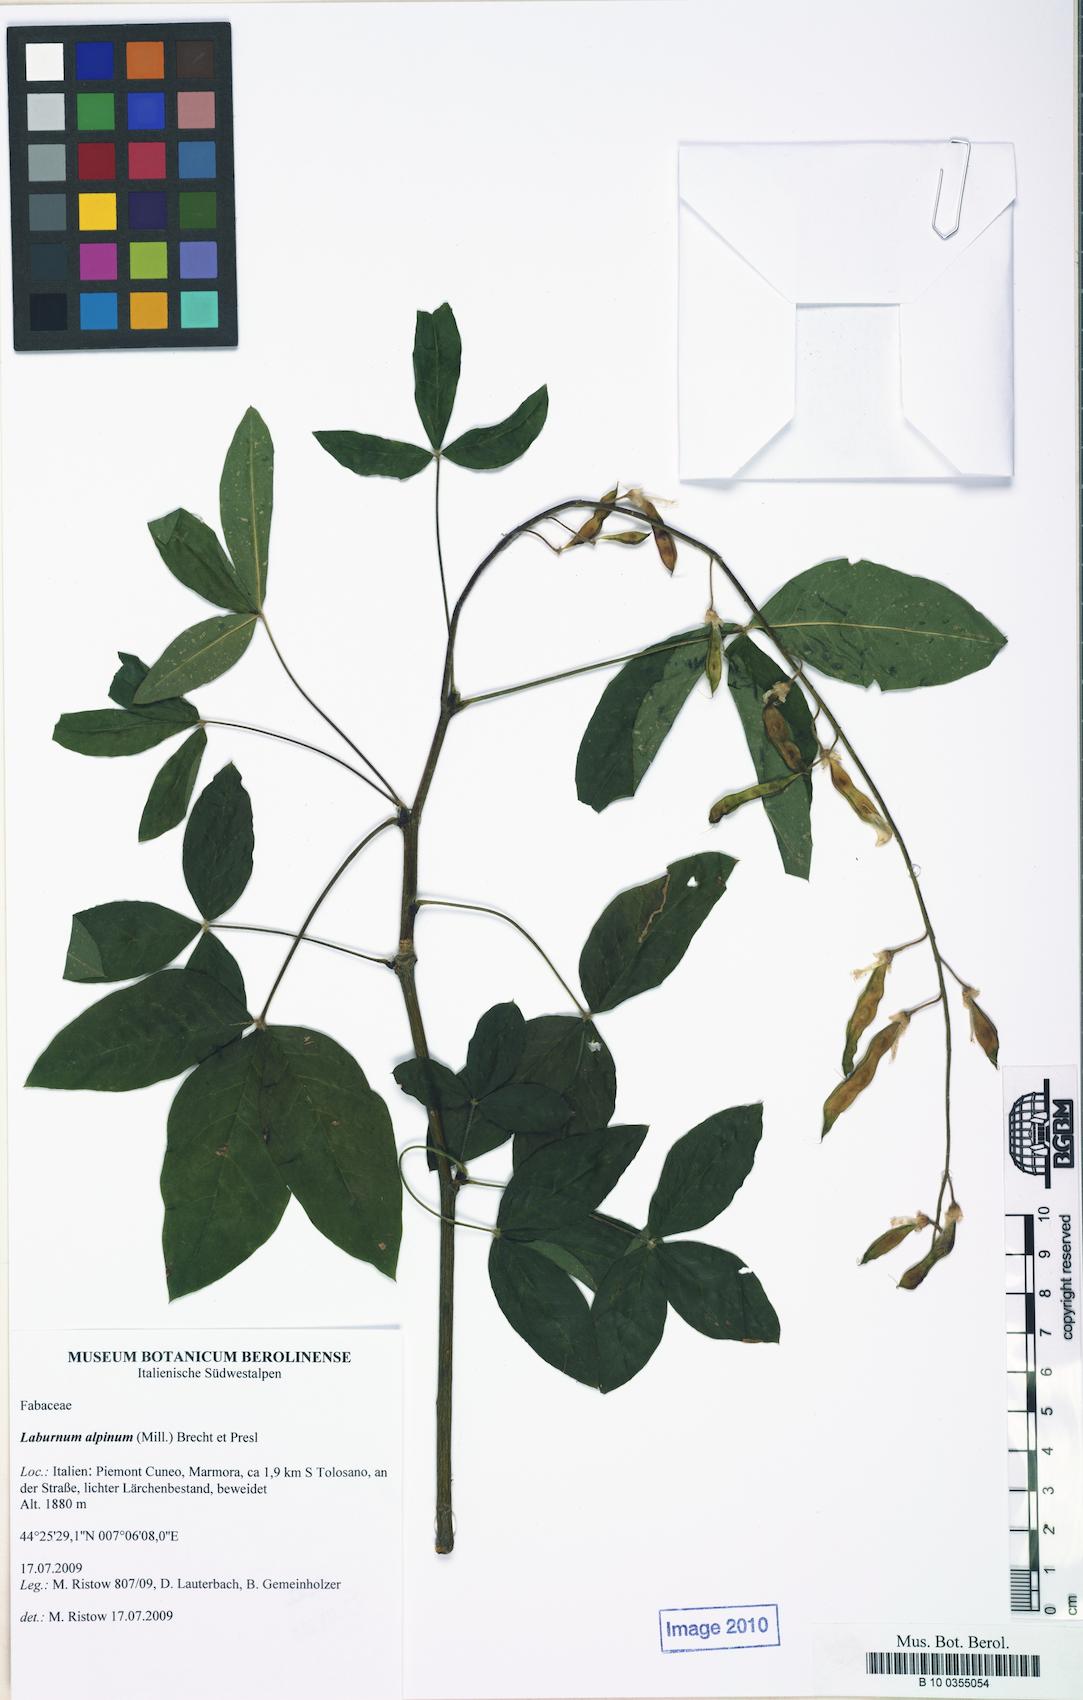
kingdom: Plantae
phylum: Tracheophyta
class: Magnoliopsida
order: Fabales
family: Fabaceae
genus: Laburnum
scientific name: Laburnum alpinum
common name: Scottish laburnum
